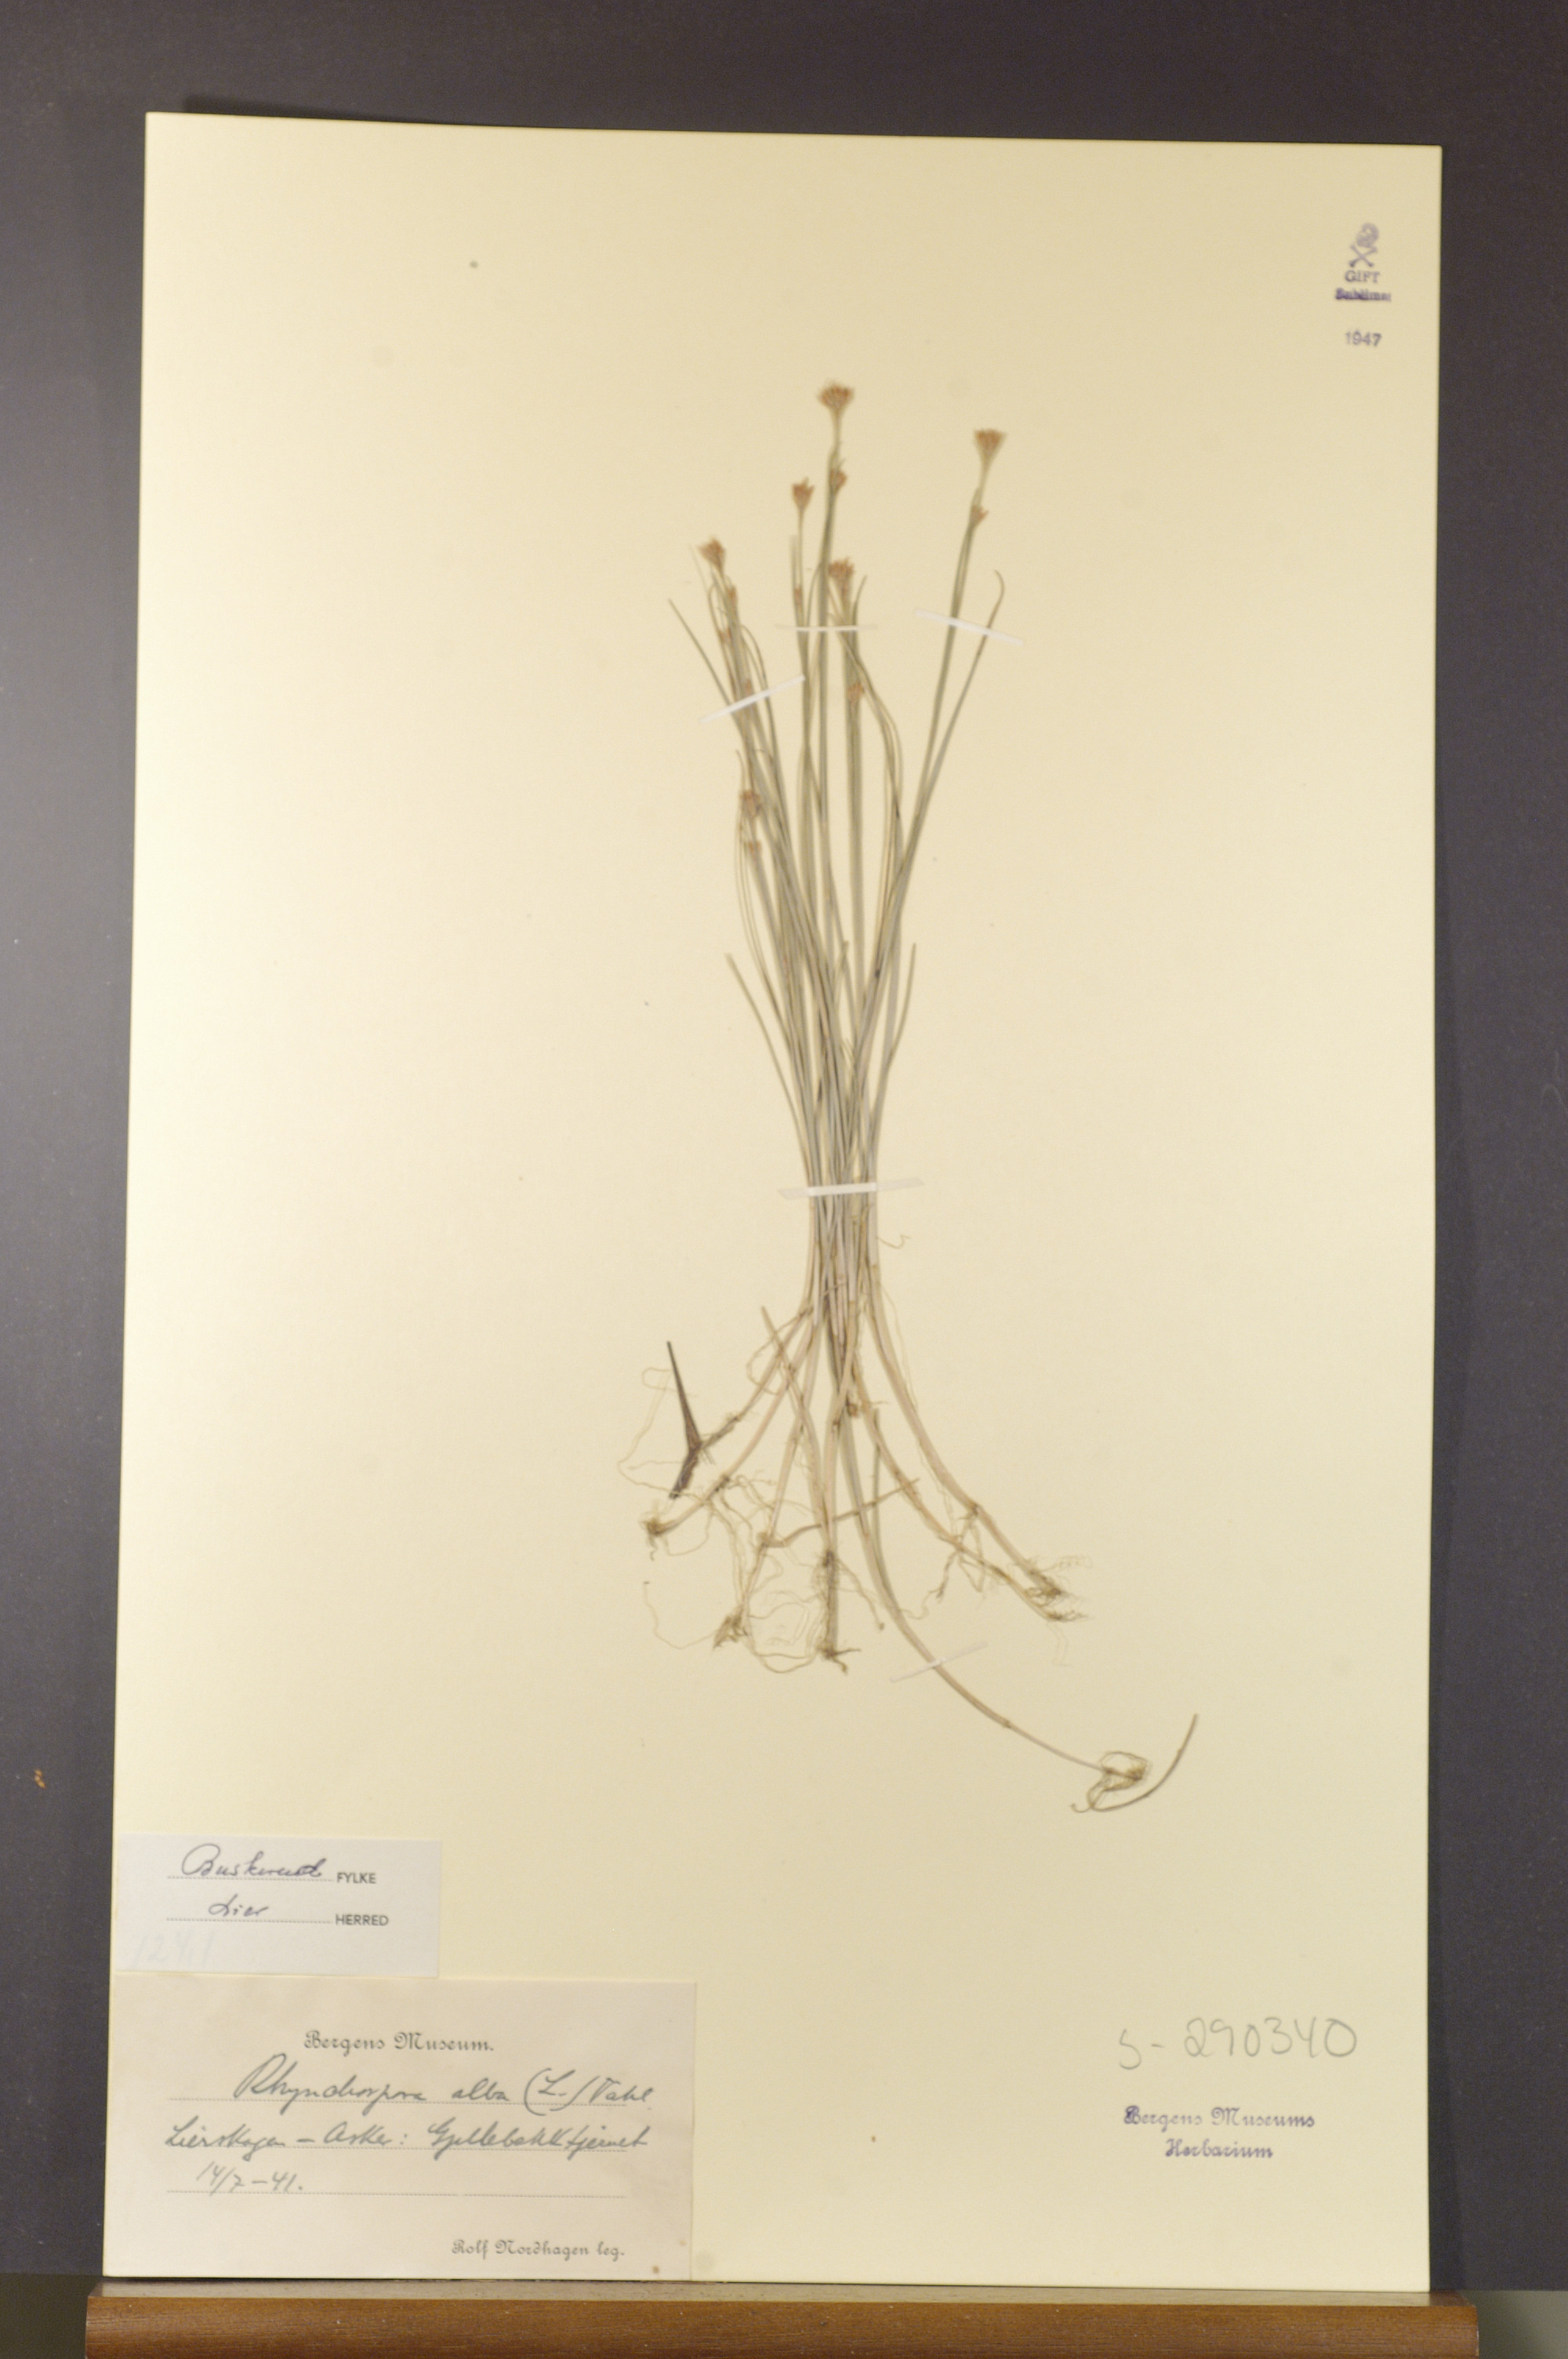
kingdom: Plantae
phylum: Tracheophyta
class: Liliopsida
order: Poales
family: Cyperaceae
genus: Rhynchospora
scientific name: Rhynchospora alba
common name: White beak-sedge
